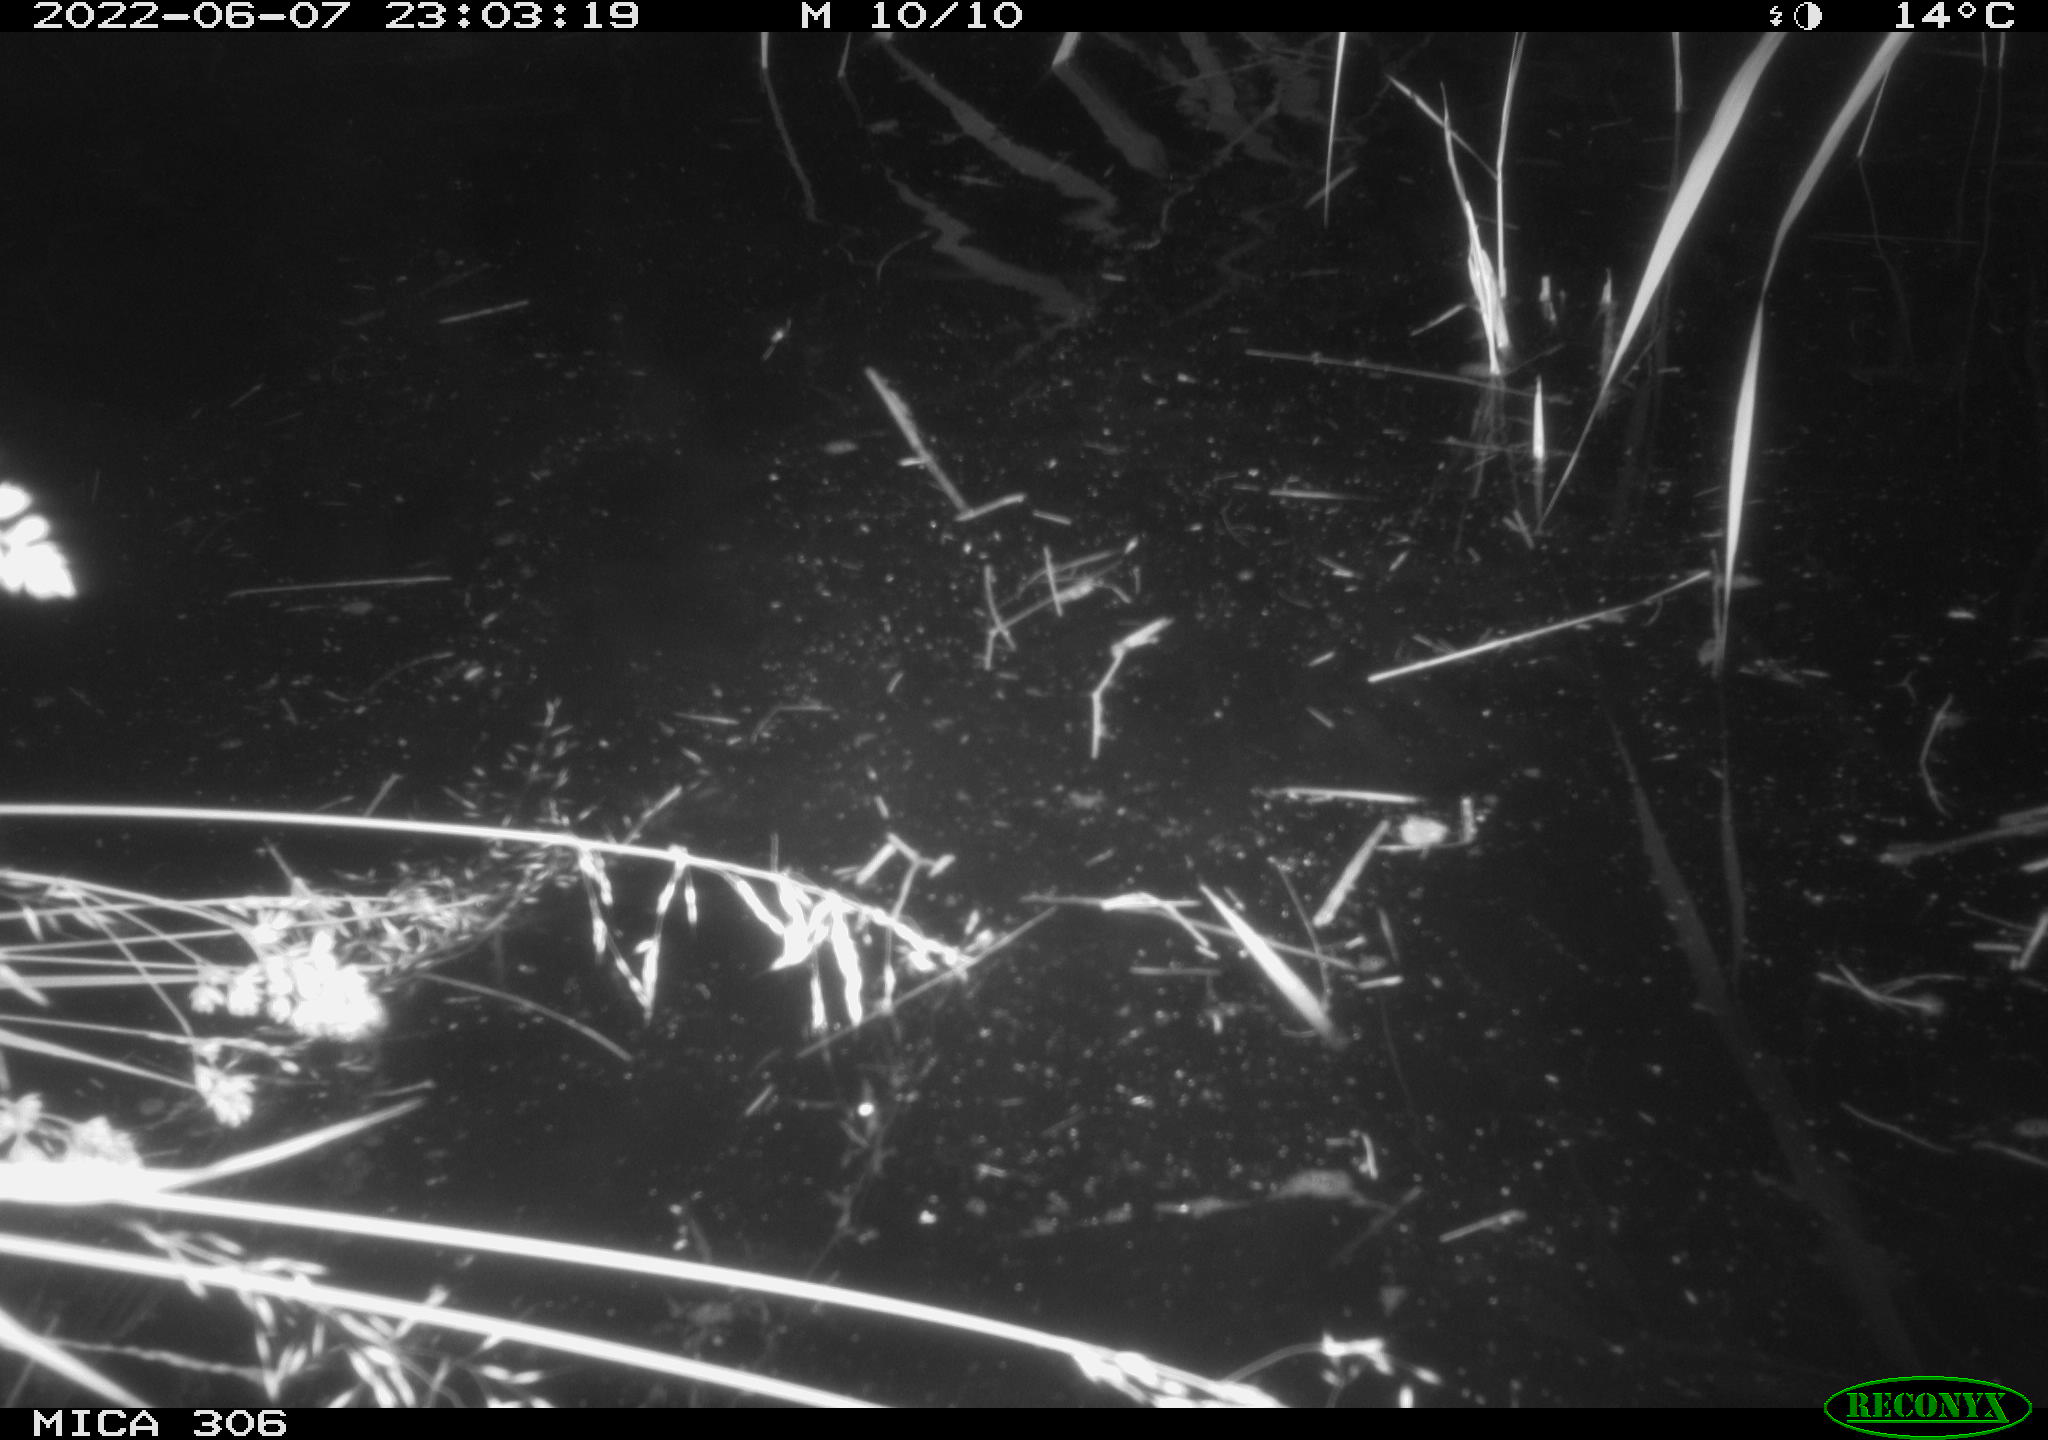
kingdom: Animalia
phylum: Chordata
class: Aves
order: Anseriformes
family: Anatidae
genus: Anas
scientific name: Anas platyrhynchos
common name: Mallard
